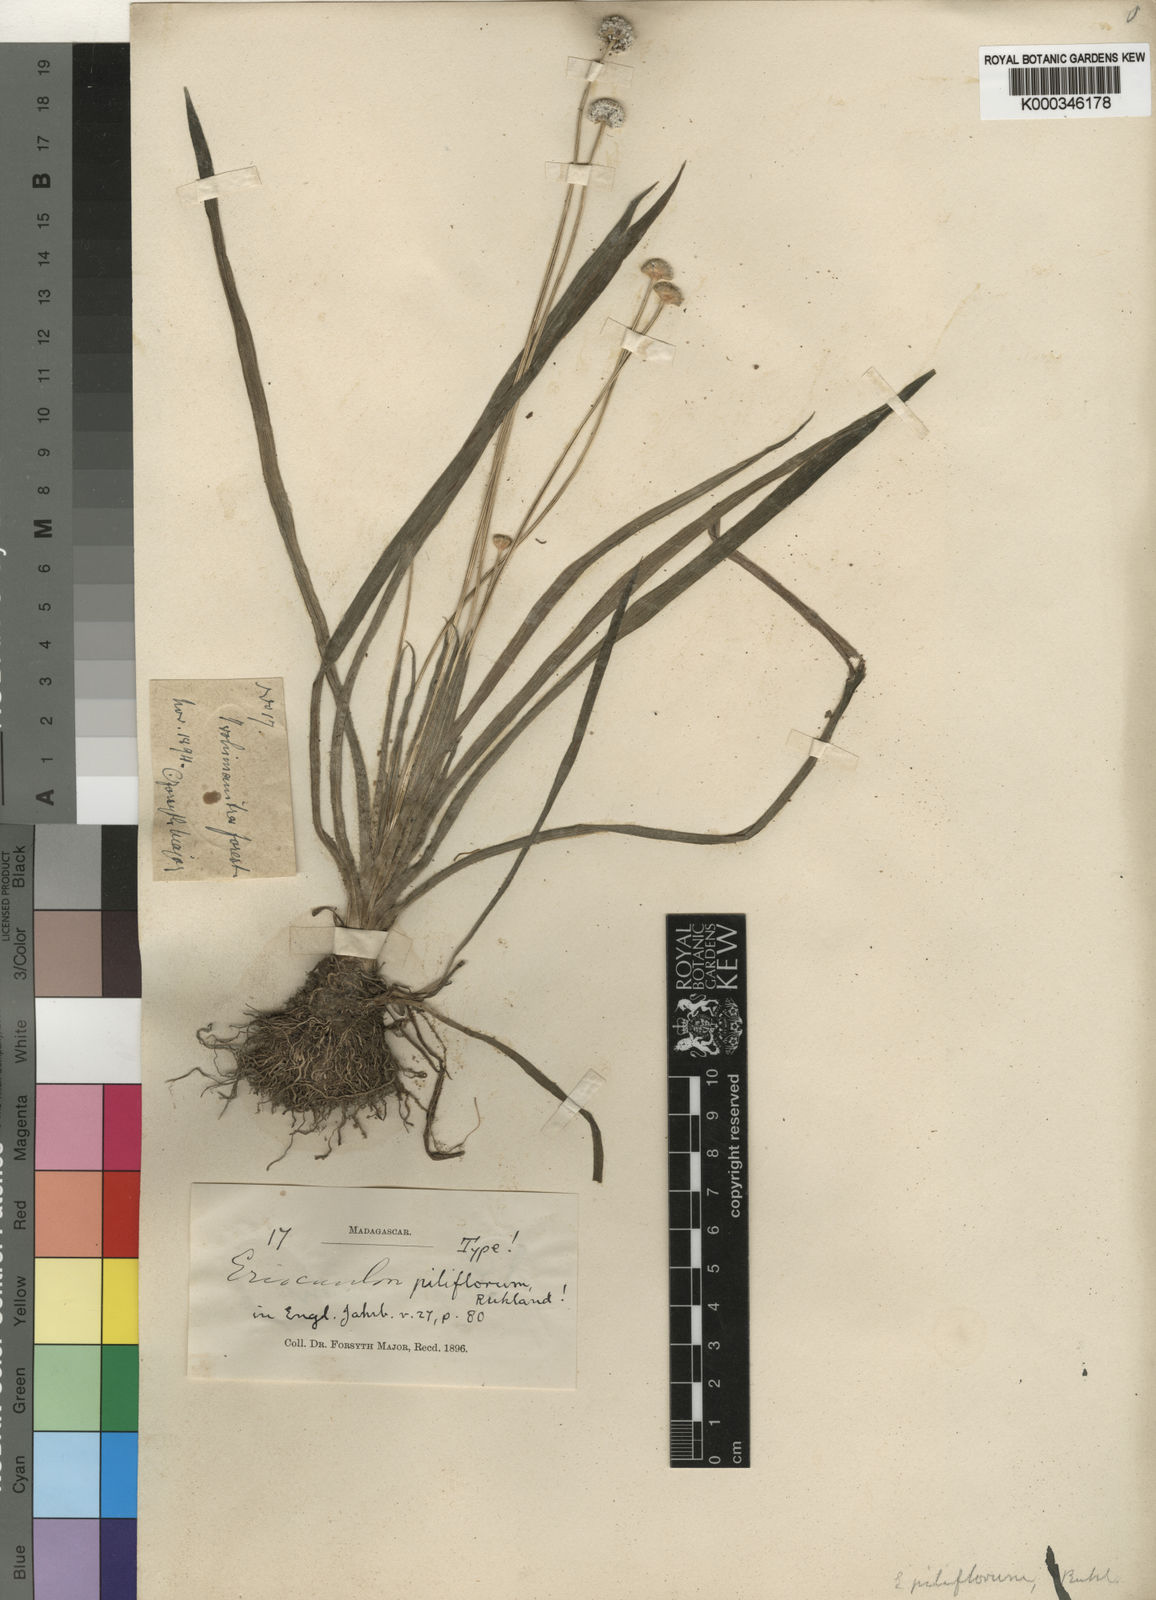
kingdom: Plantae
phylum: Tracheophyta
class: Liliopsida
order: Poales
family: Eriocaulaceae
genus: Eriocaulon
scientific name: Eriocaulon piliflorum
